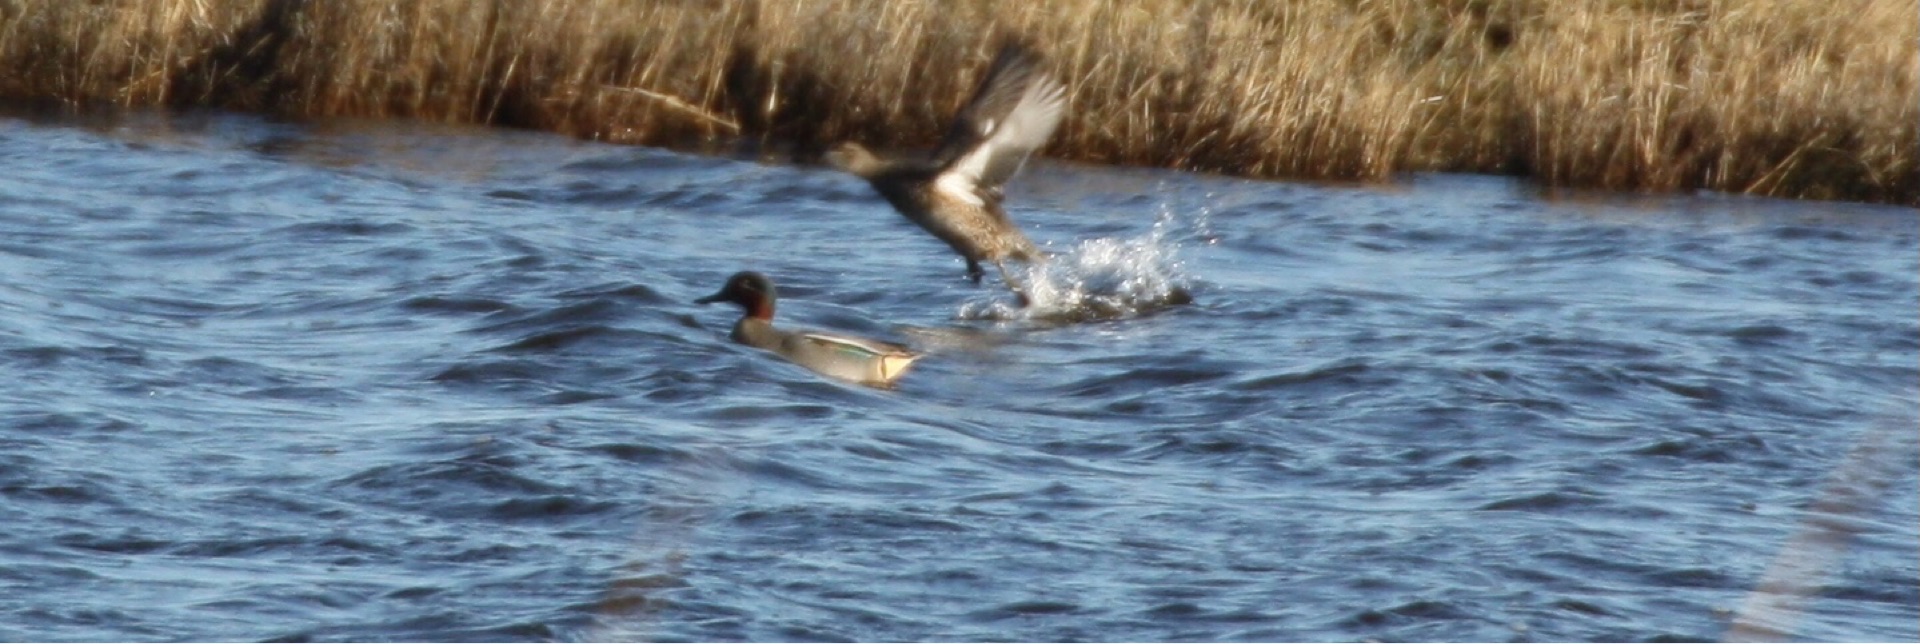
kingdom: Animalia
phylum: Chordata
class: Aves
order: Anseriformes
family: Anatidae
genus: Anas
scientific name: Anas crecca
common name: Krikand
